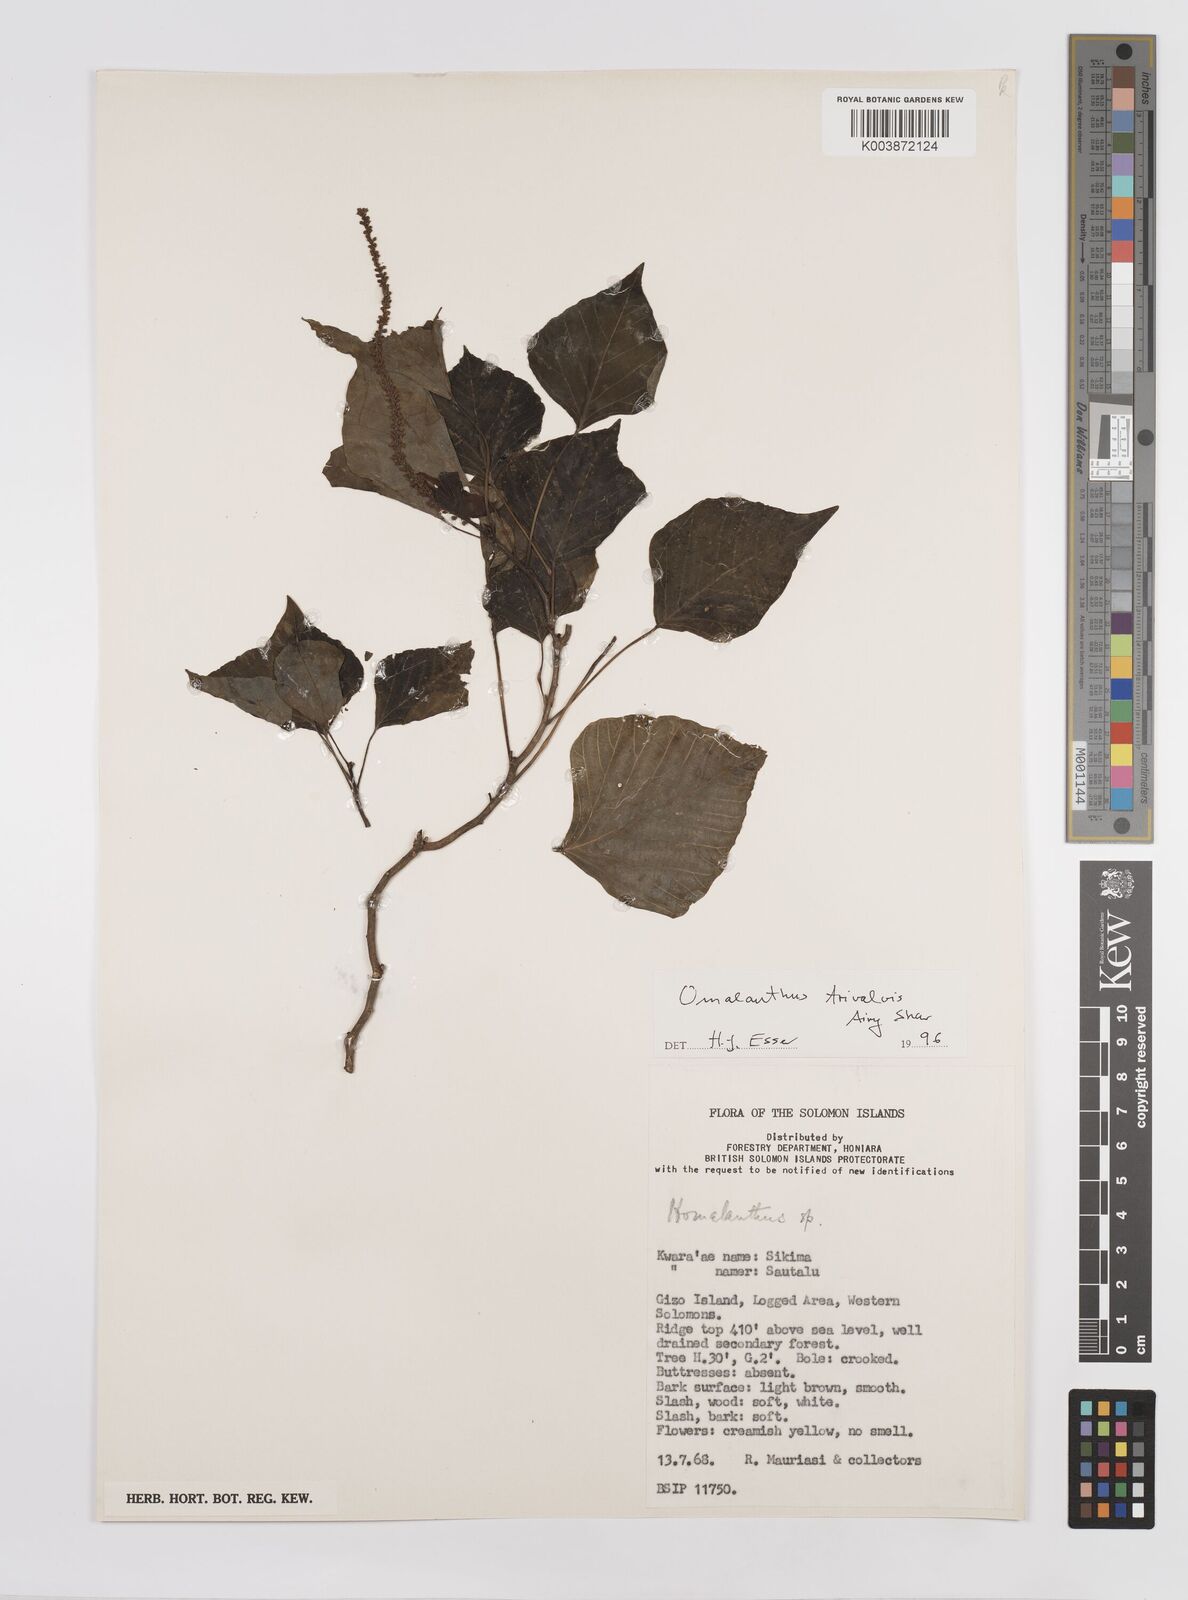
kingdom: Plantae
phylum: Tracheophyta
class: Magnoliopsida
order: Malpighiales
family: Euphorbiaceae
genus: Homalanthus
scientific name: Homalanthus trivalvis
